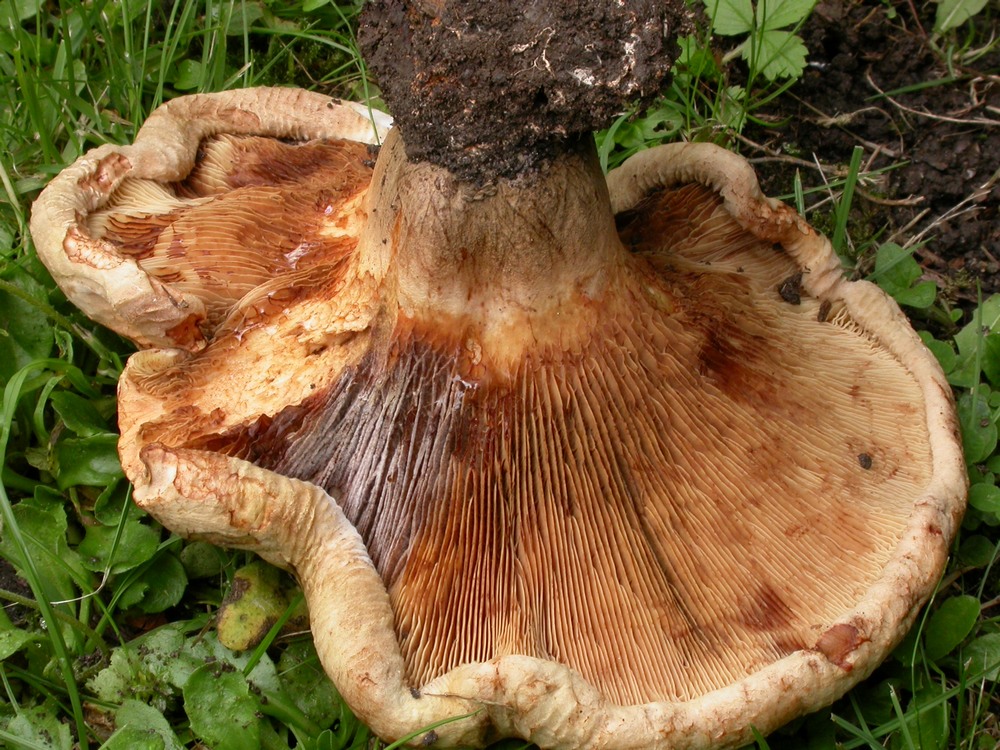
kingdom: Fungi
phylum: Basidiomycota
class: Agaricomycetes
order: Boletales
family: Paxillaceae
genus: Paxillus
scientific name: Paxillus ammoniavirescens
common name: olivensporet netbladhat
